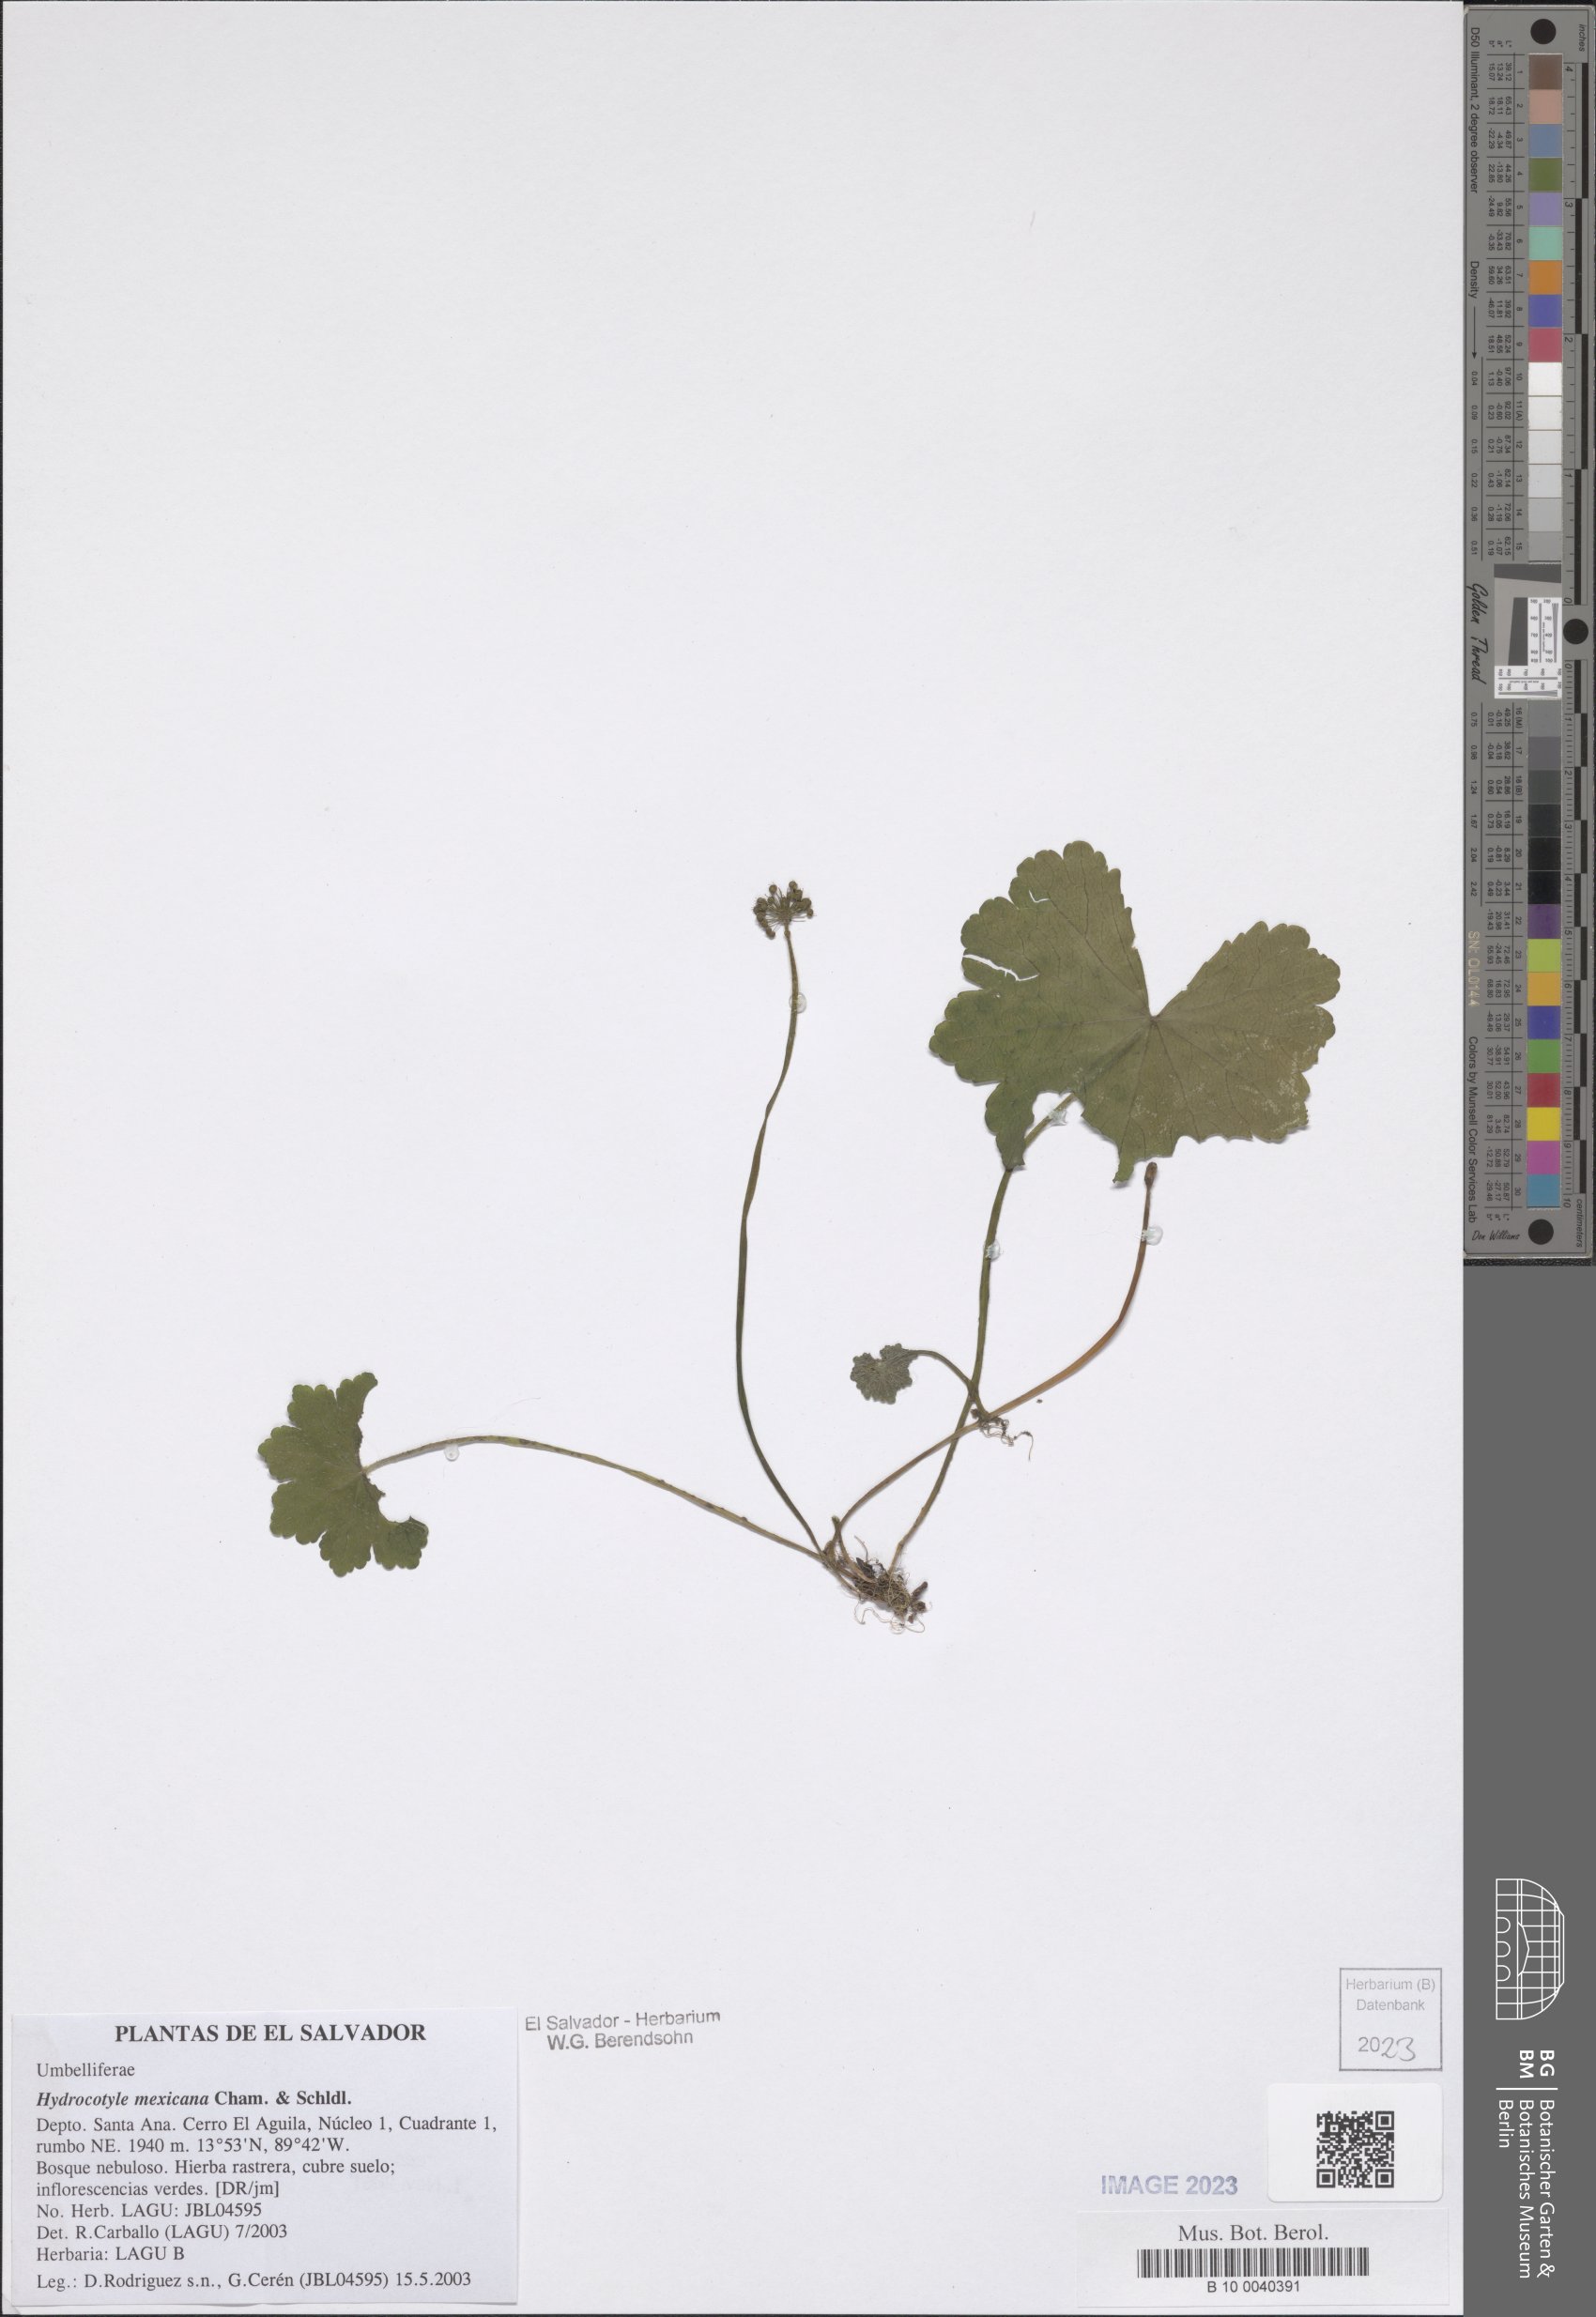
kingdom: Plantae
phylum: Tracheophyta
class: Magnoliopsida
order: Apiales
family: Araliaceae
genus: Hydrocotyle
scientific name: Hydrocotyle mexicana
